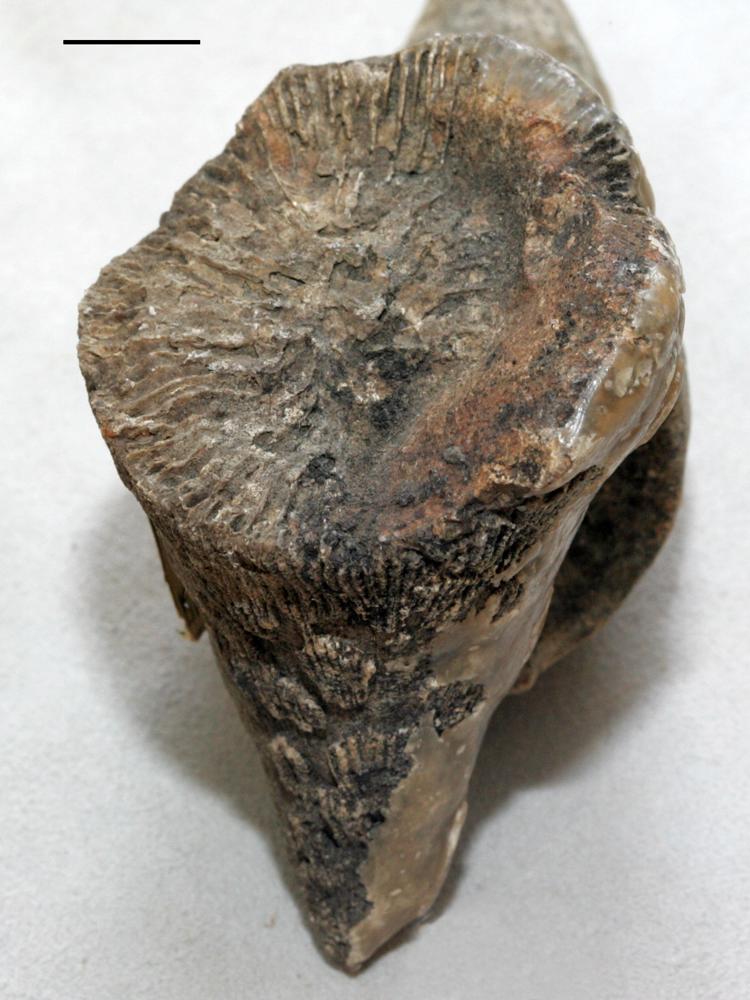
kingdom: Animalia
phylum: Cnidaria
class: Anthozoa
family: Streptelasmatidae
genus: Streptelasma
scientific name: Streptelasma corniculum
